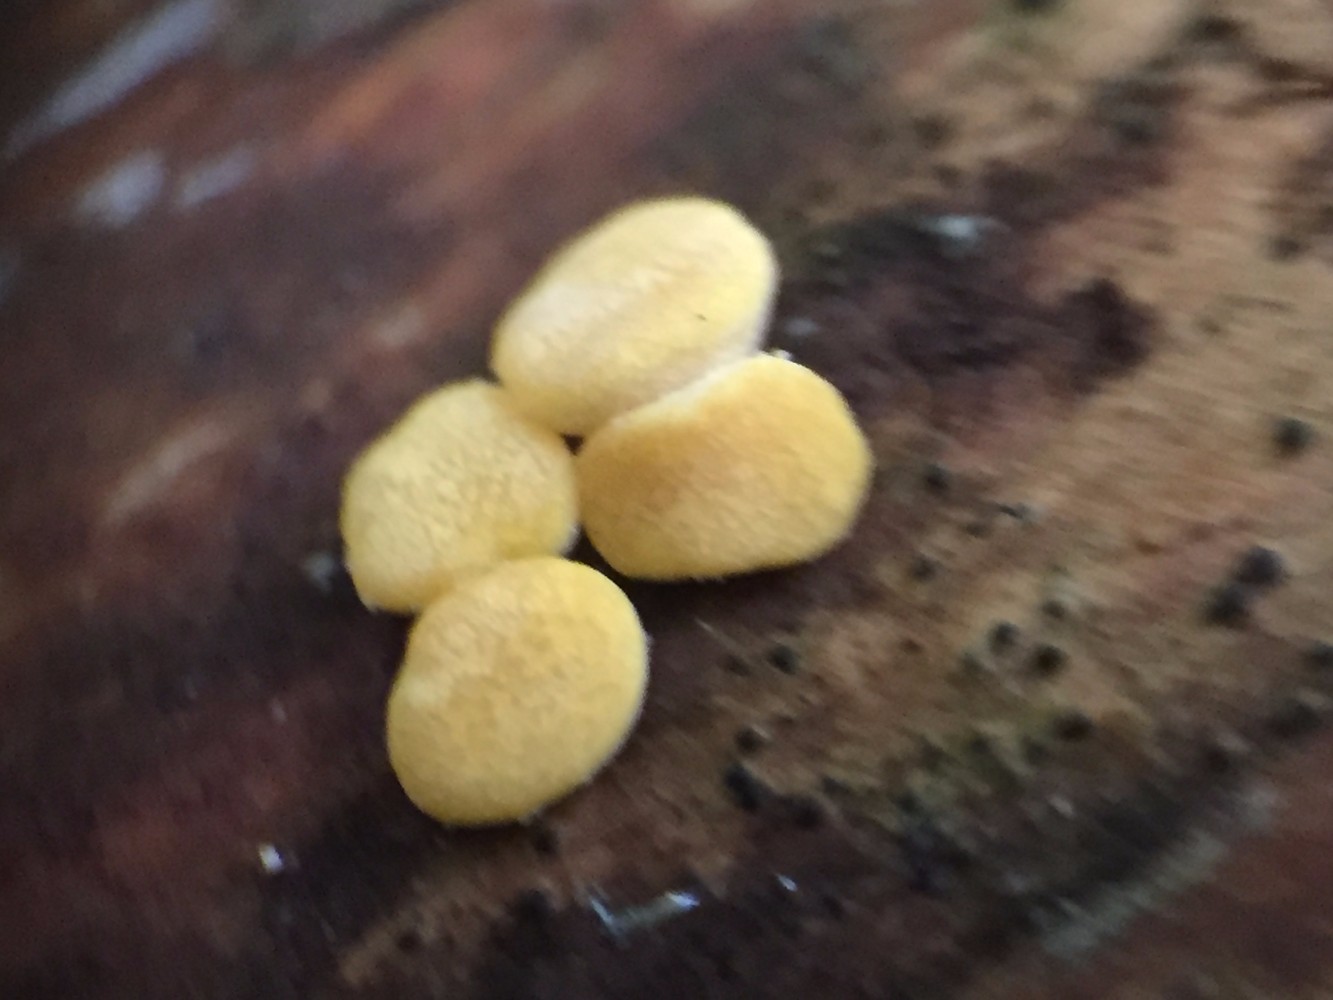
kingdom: Fungi
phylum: Ascomycota
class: Sordariomycetes
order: Hypocreales
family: Hypocreaceae
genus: Trichoderma
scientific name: Trichoderma aureoviride
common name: æggegul kødkerne
